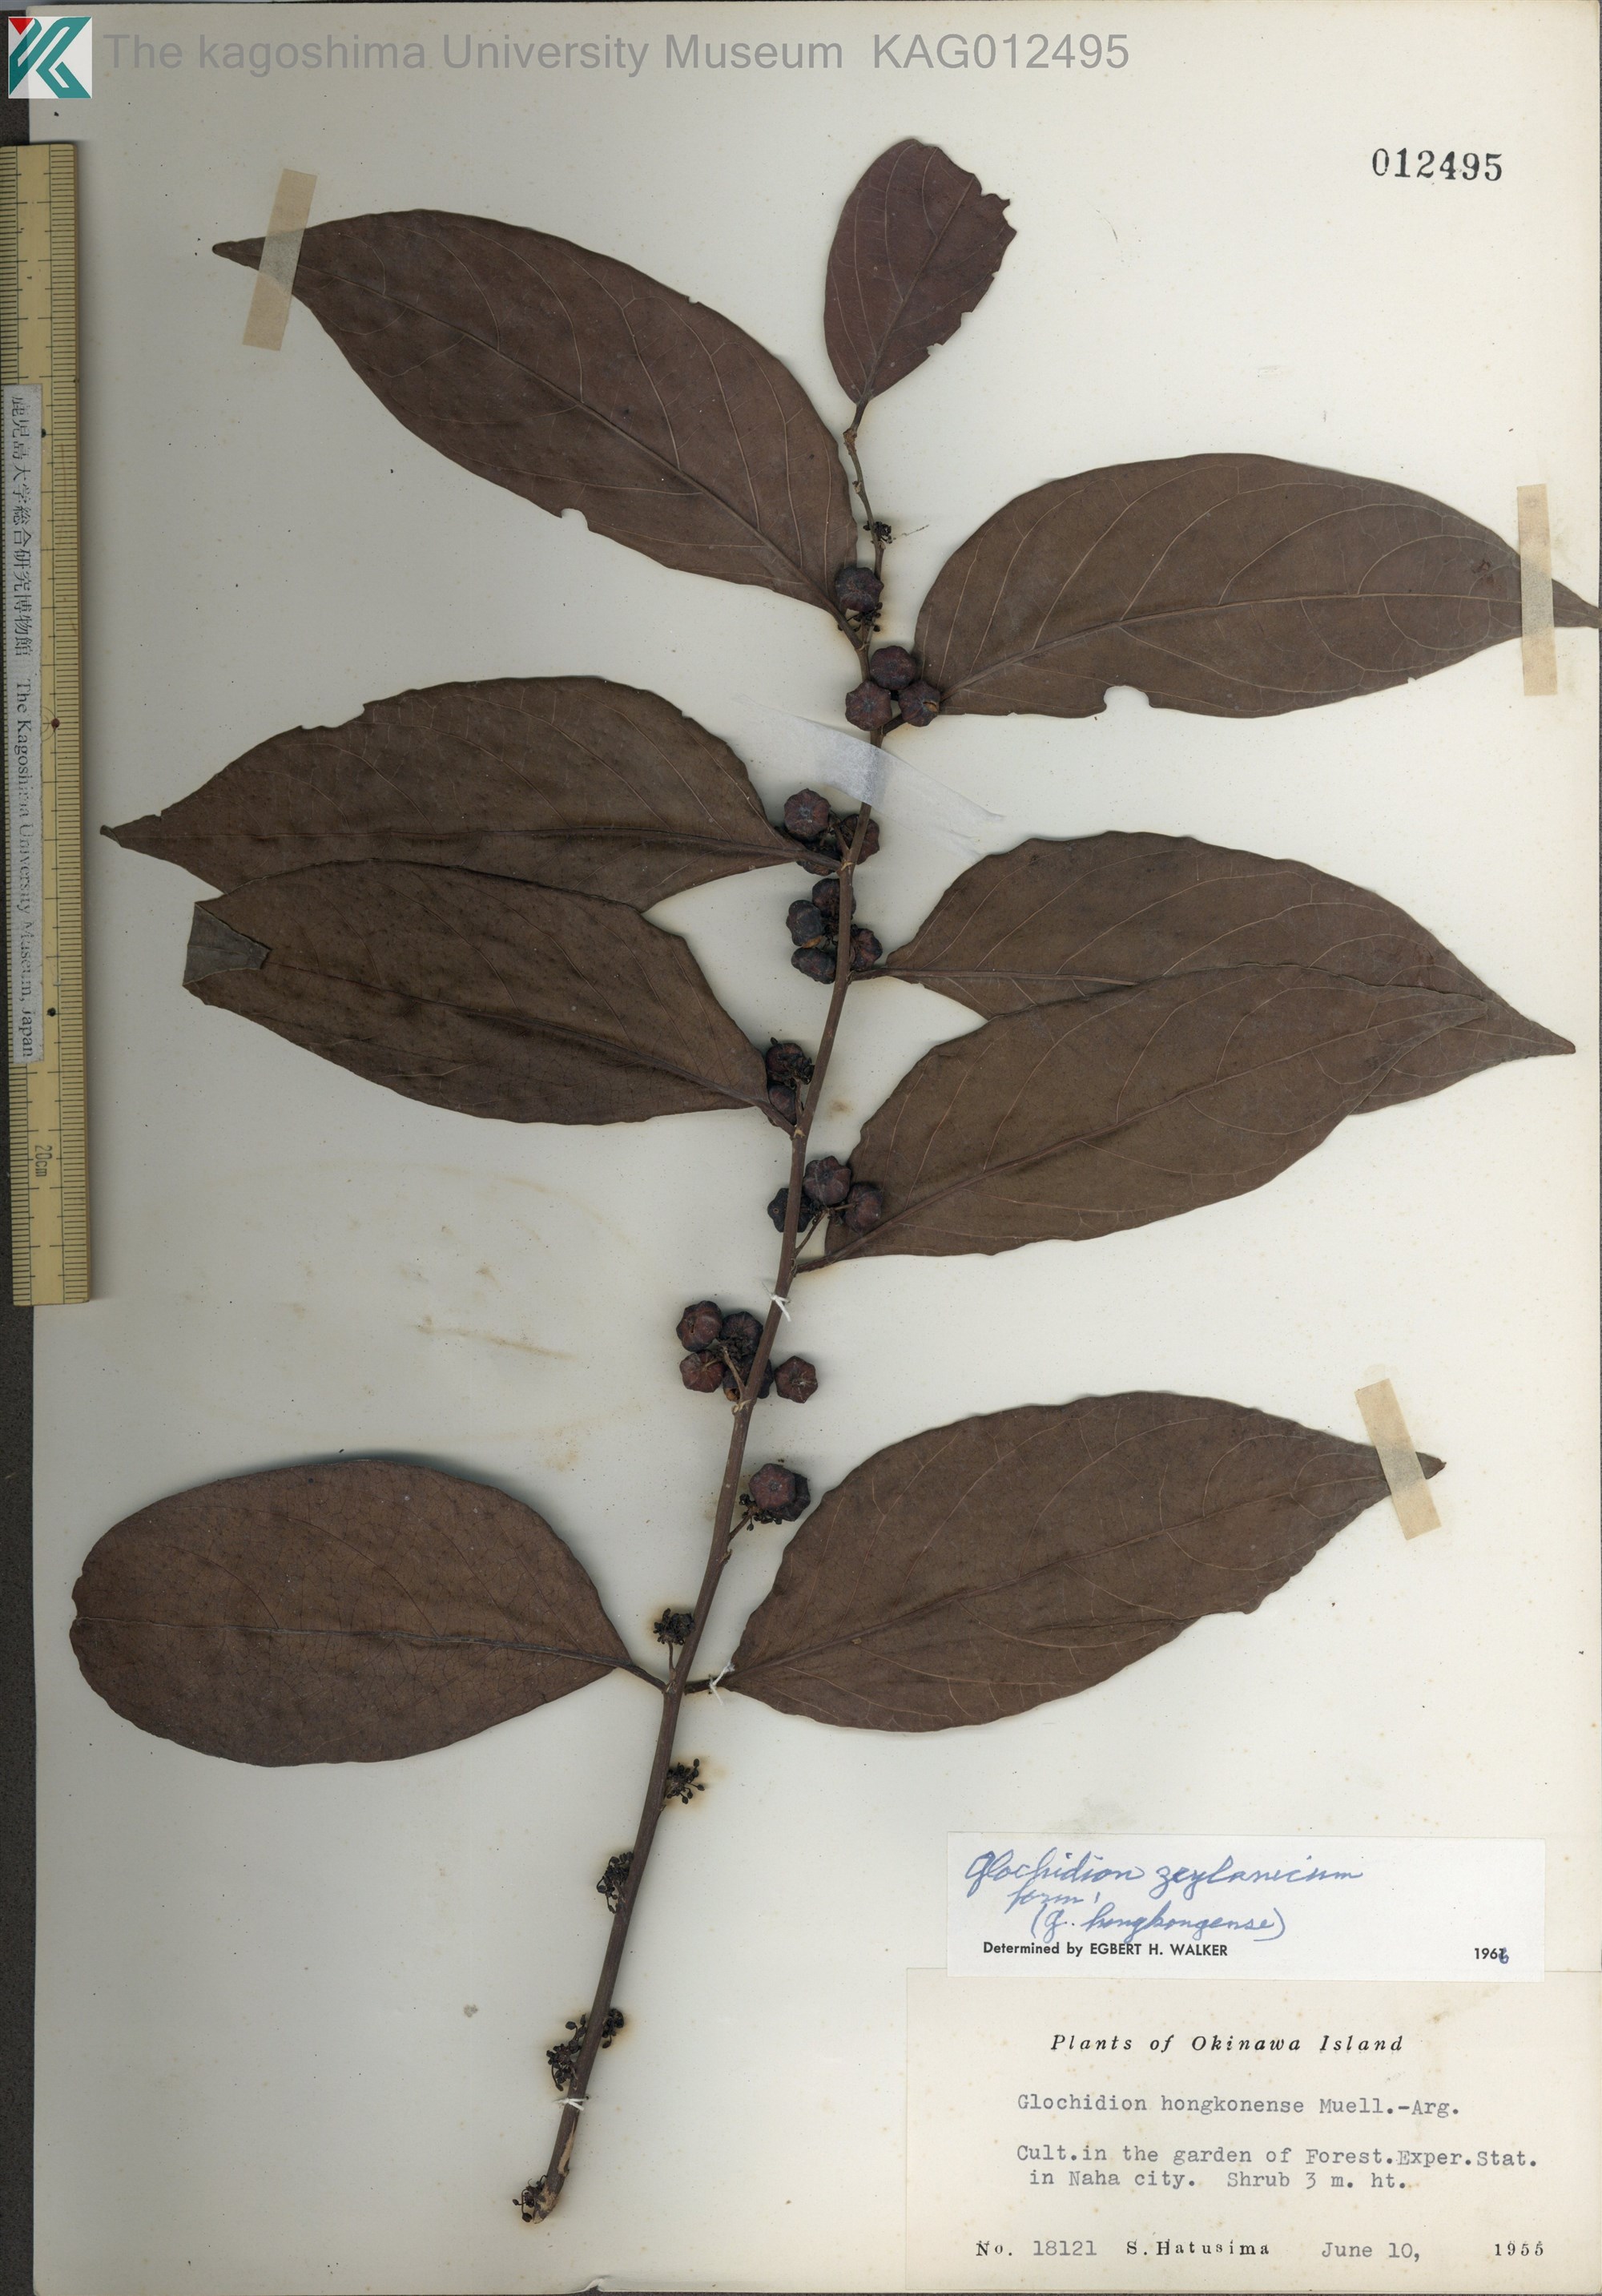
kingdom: Plantae
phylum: Tracheophyta
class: Magnoliopsida
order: Malpighiales
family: Phyllanthaceae
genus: Glochidion
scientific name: Glochidion zeylanicum
